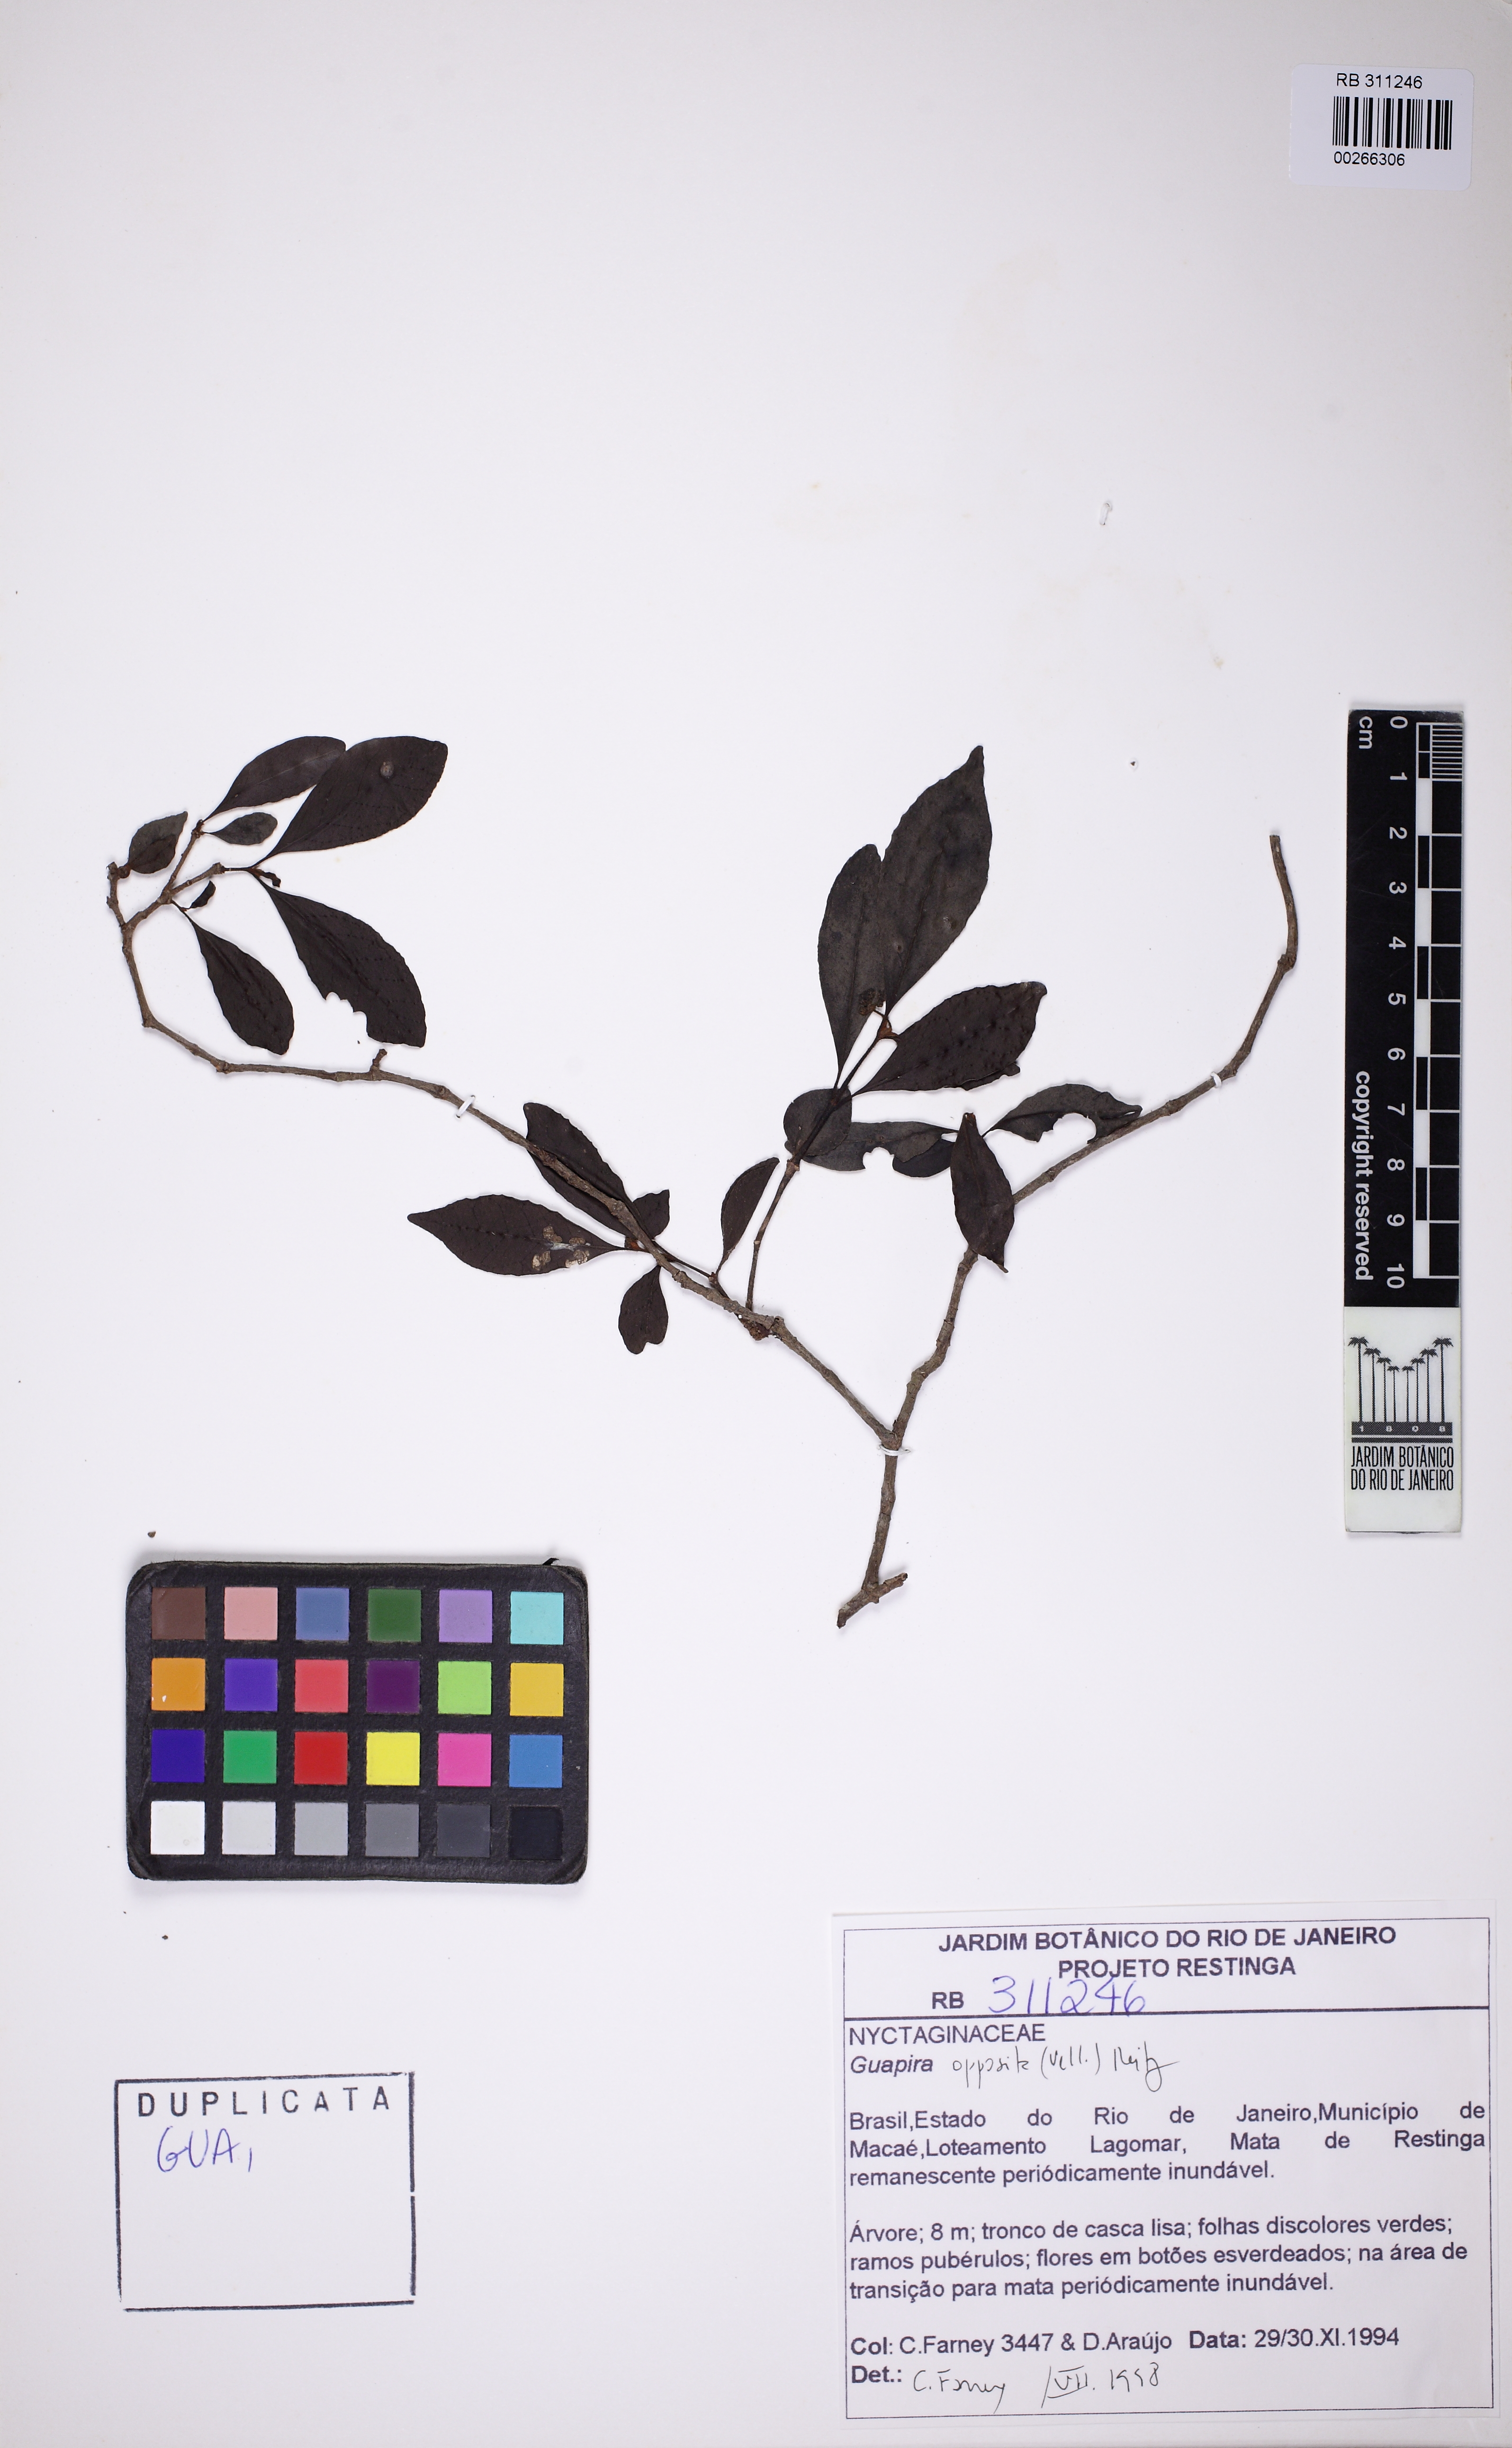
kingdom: Plantae
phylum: Tracheophyta
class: Magnoliopsida
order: Caryophyllales
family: Nyctaginaceae
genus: Guapira
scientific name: Guapira opposita
